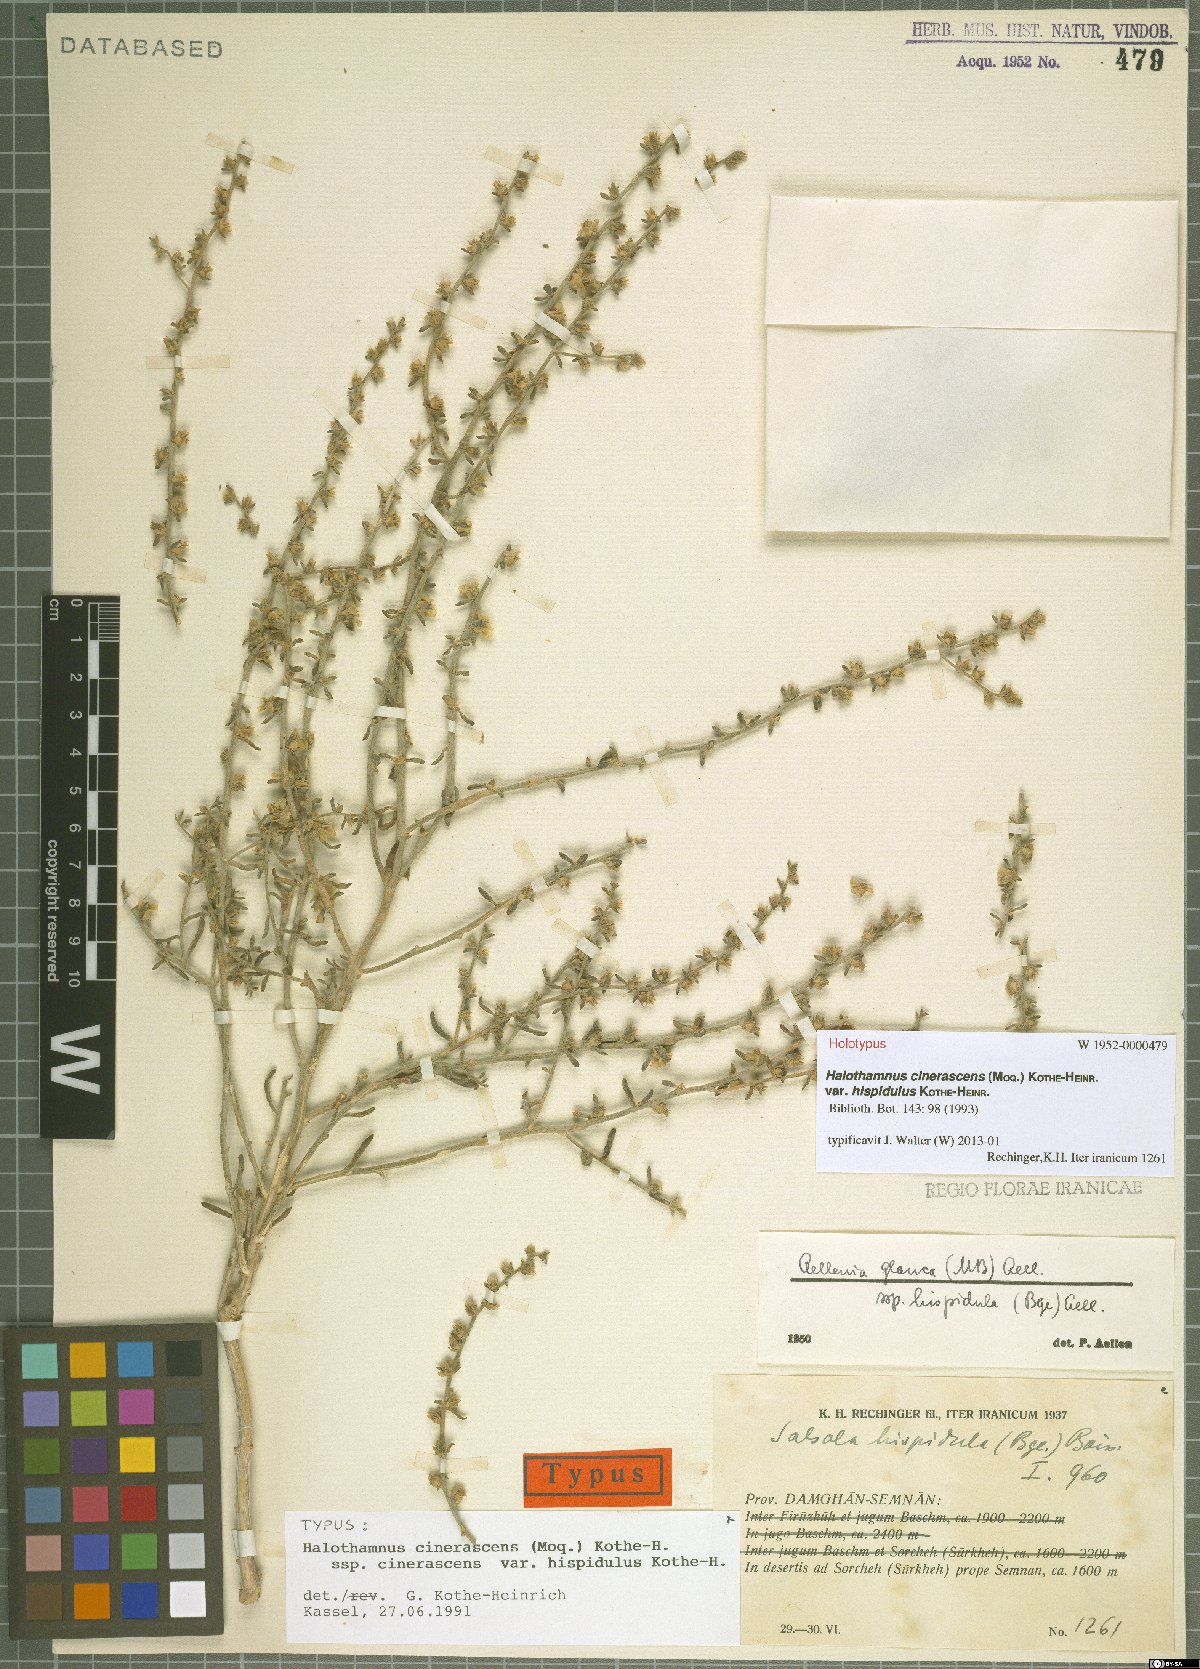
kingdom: Plantae
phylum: Tracheophyta
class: Magnoliopsida
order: Caryophyllales
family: Amaranthaceae
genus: Halothamnus
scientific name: Halothamnus cinerascens
